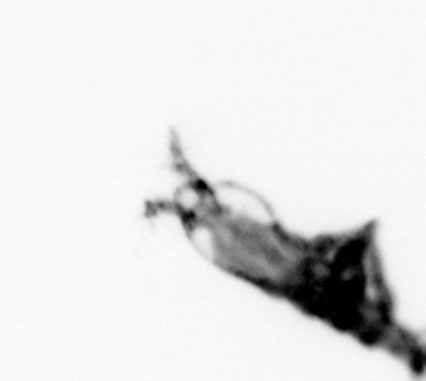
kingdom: Animalia
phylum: Arthropoda
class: Copepoda
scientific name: Copepoda
